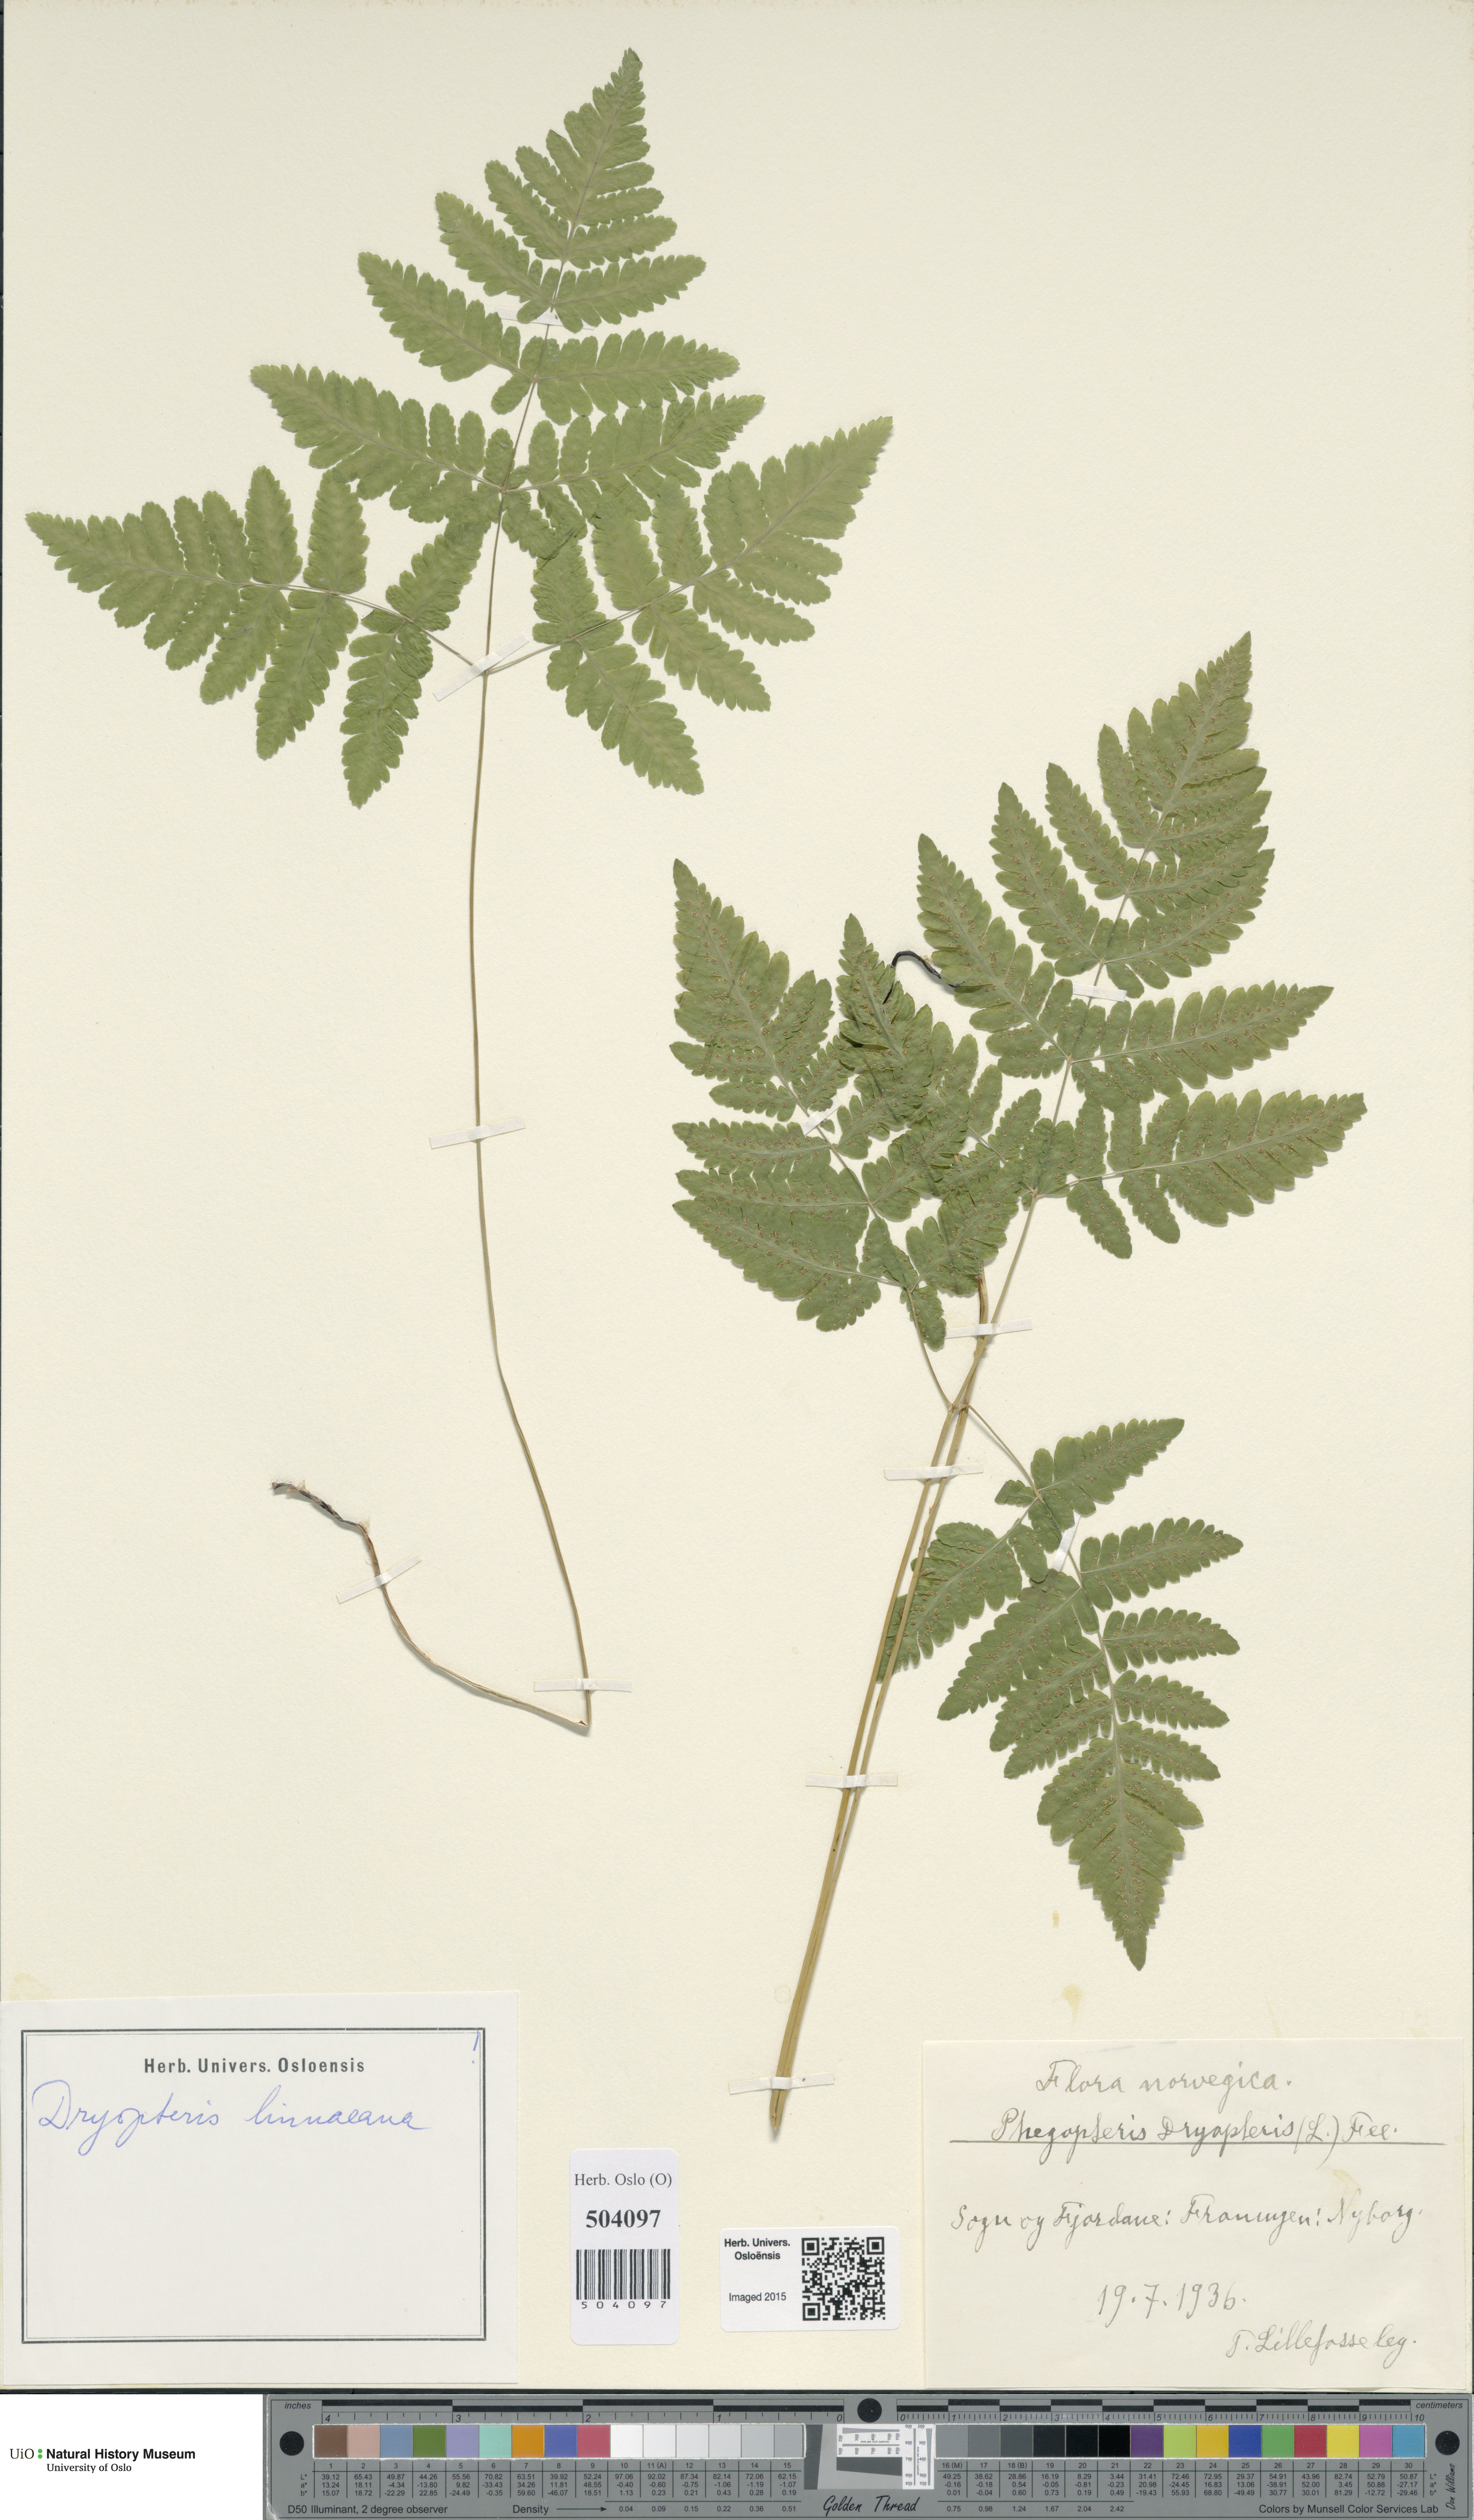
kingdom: Plantae
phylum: Tracheophyta
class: Polypodiopsida
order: Polypodiales
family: Cystopteridaceae
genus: Gymnocarpium
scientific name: Gymnocarpium dryopteris
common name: Oak fern
